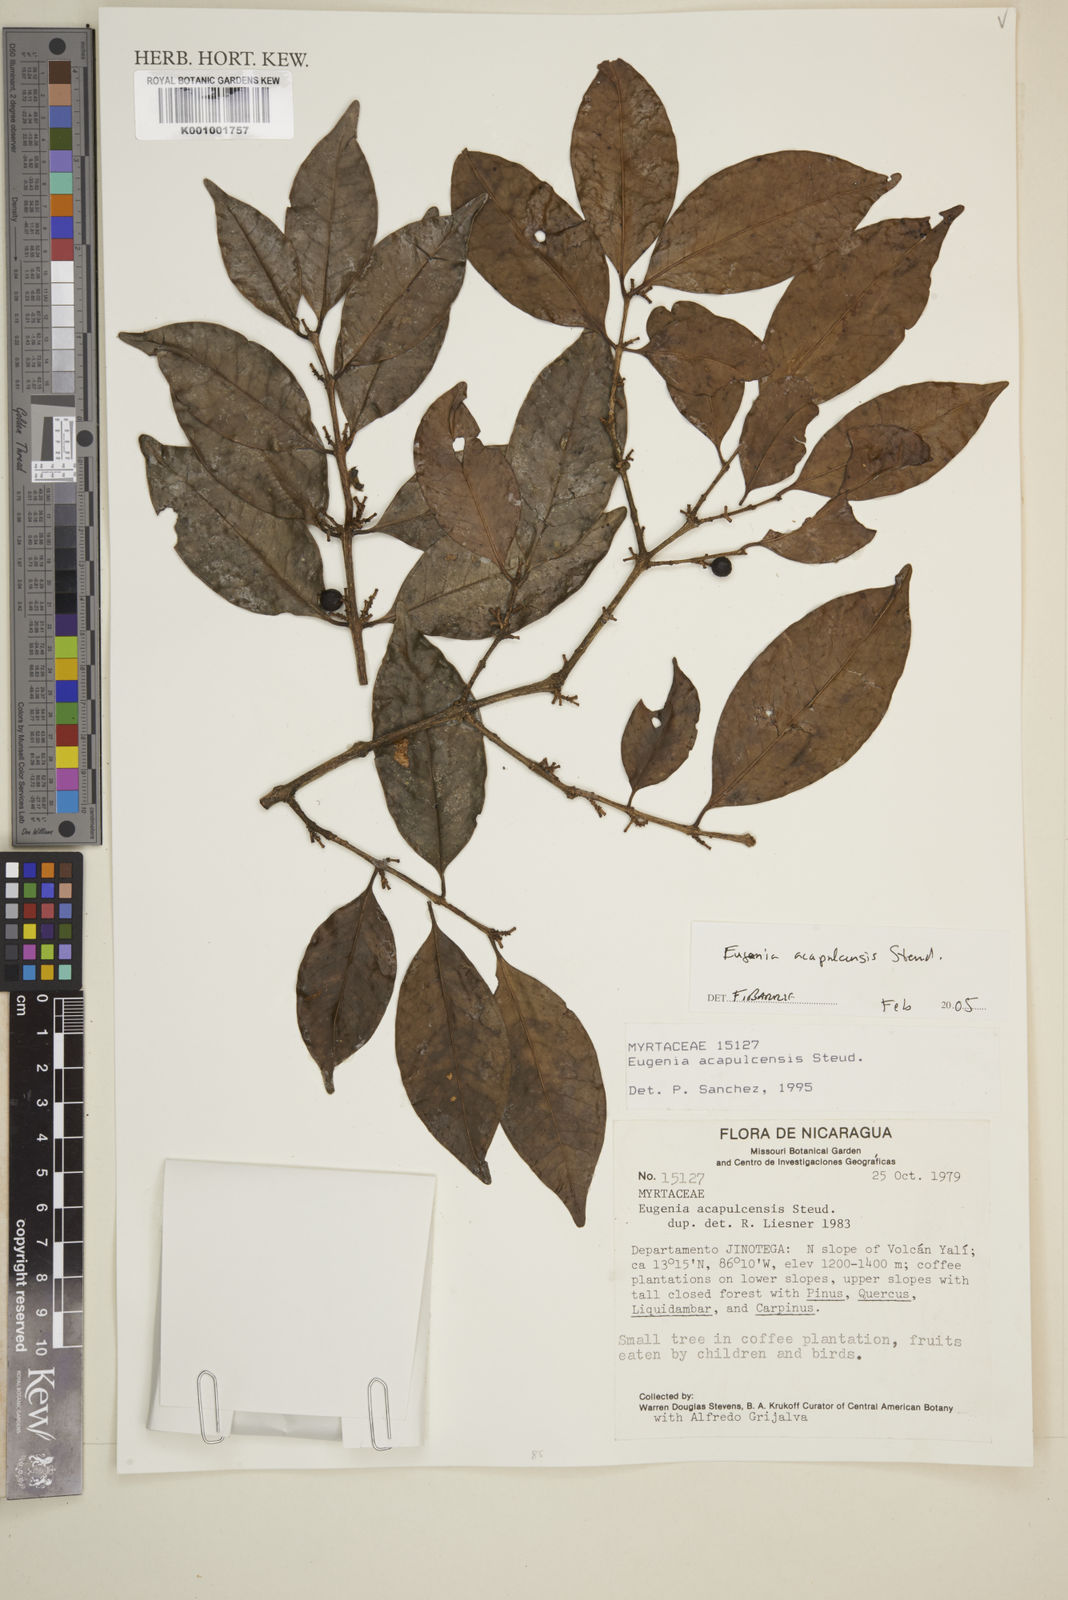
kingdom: Plantae
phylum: Tracheophyta
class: Magnoliopsida
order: Myrtales
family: Myrtaceae
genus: Eugenia
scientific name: Eugenia acapulcensis
